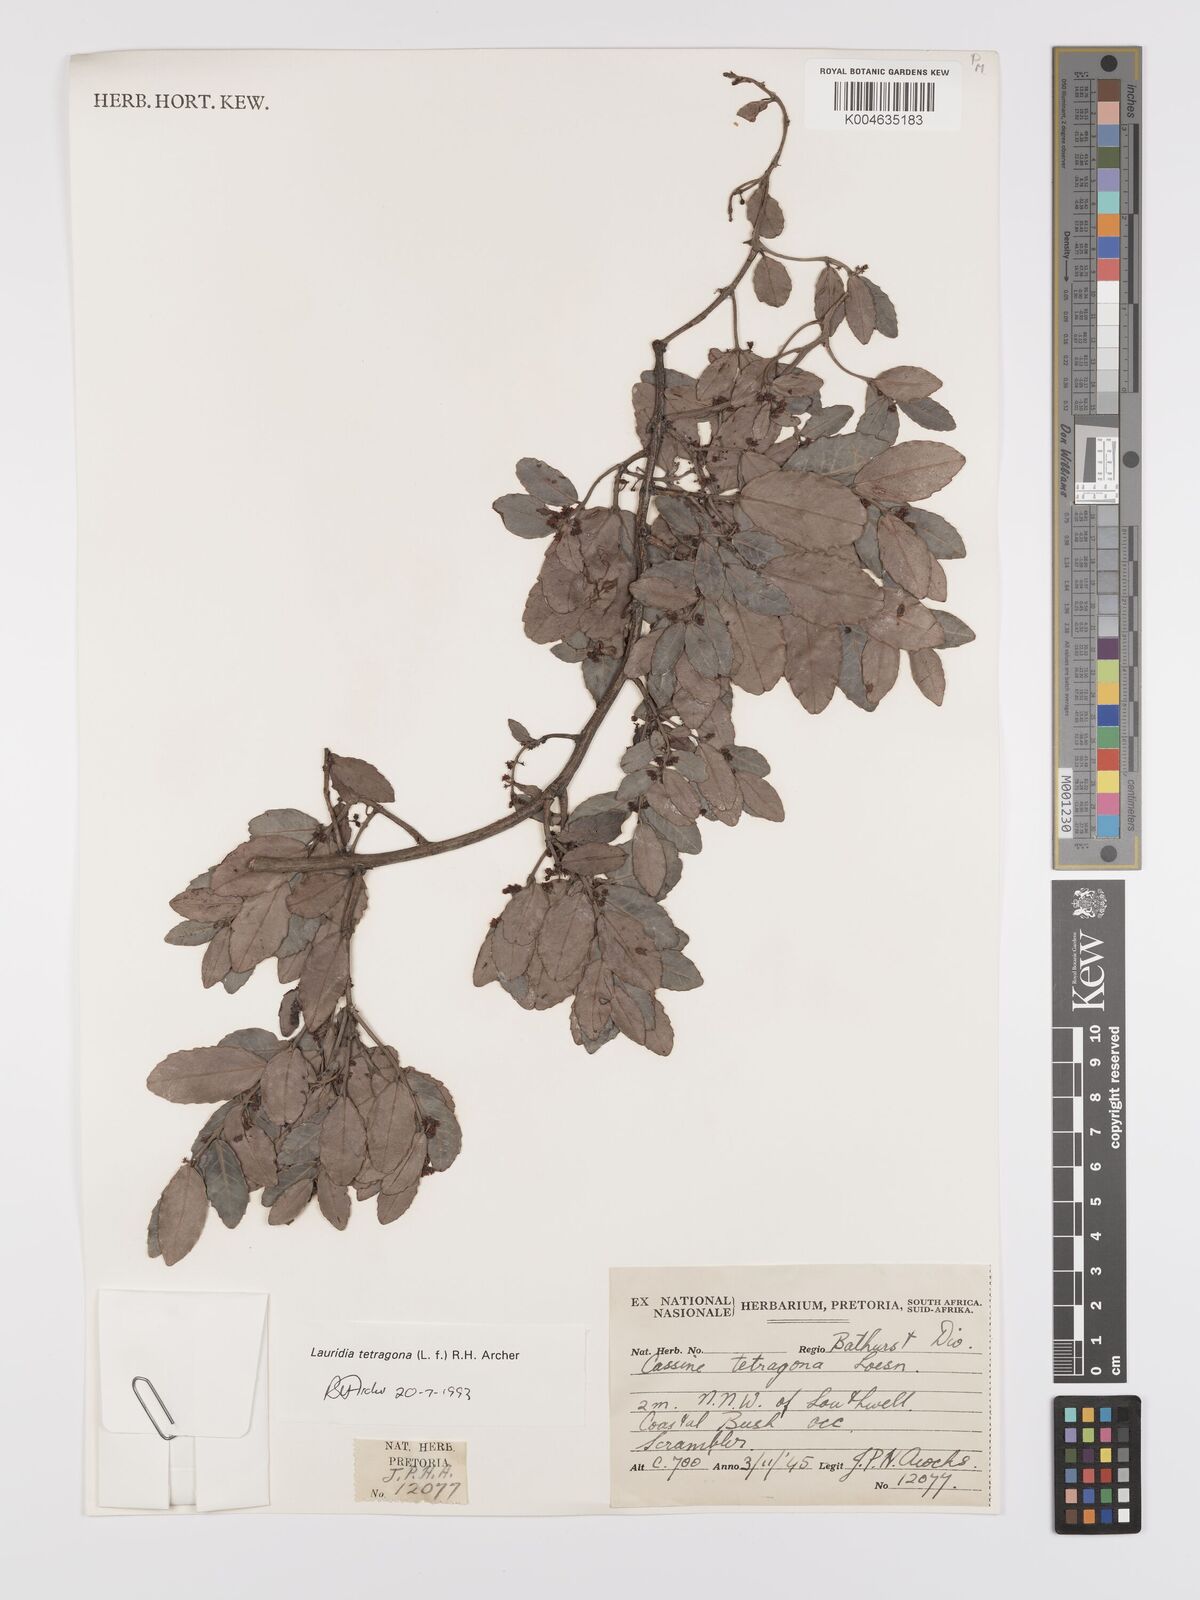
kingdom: Plantae
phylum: Tracheophyta
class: Magnoliopsida
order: Celastrales
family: Celastraceae
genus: Lauridia
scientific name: Lauridia tetragona
